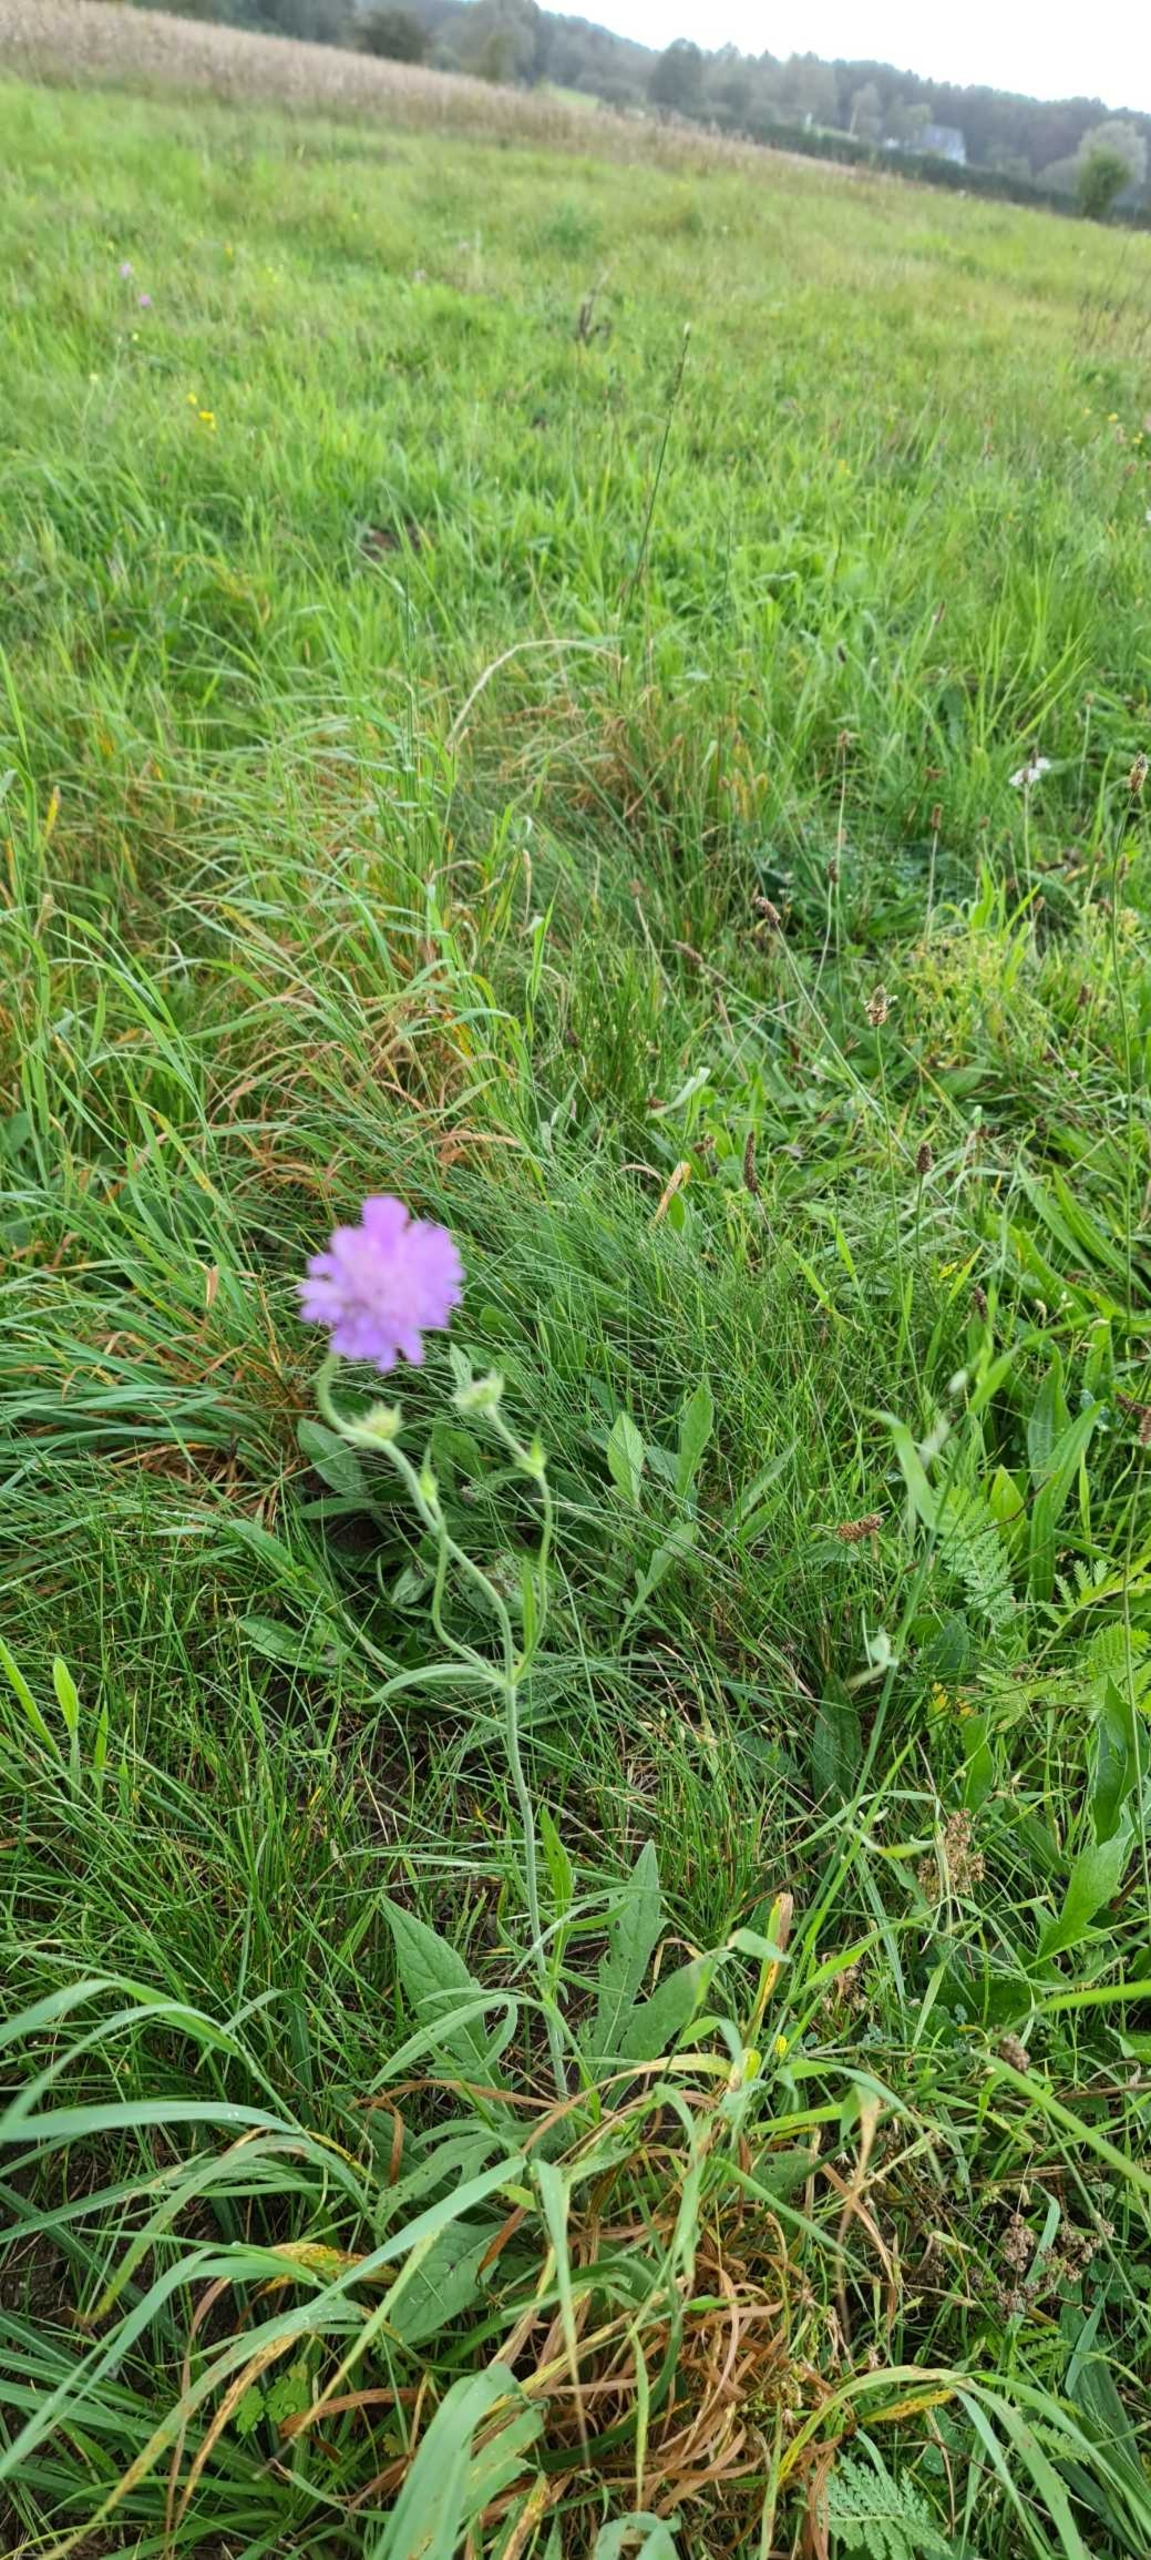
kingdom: Plantae
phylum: Tracheophyta
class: Magnoliopsida
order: Dipsacales
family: Caprifoliaceae
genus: Knautia
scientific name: Knautia arvensis
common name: Blåhat
